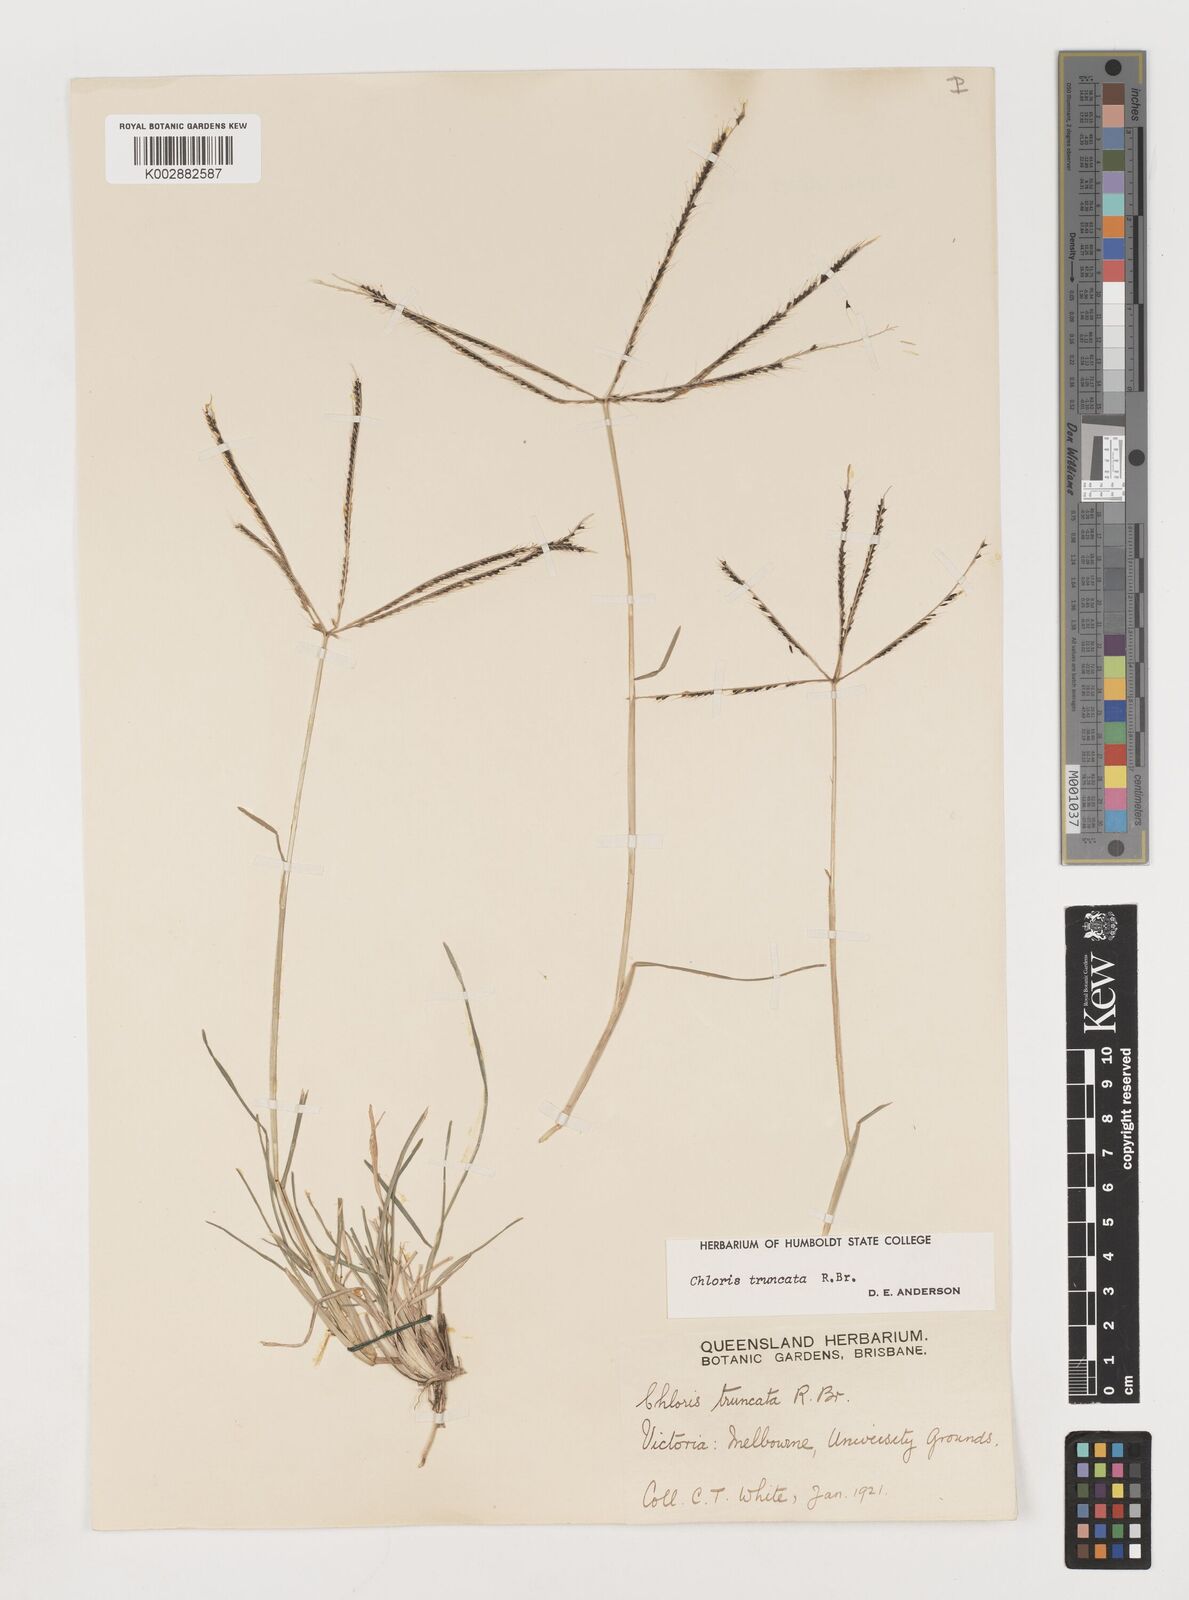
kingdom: Plantae
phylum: Tracheophyta
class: Liliopsida
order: Poales
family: Poaceae
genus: Chloris
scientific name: Chloris truncata
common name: Windmill-grass
